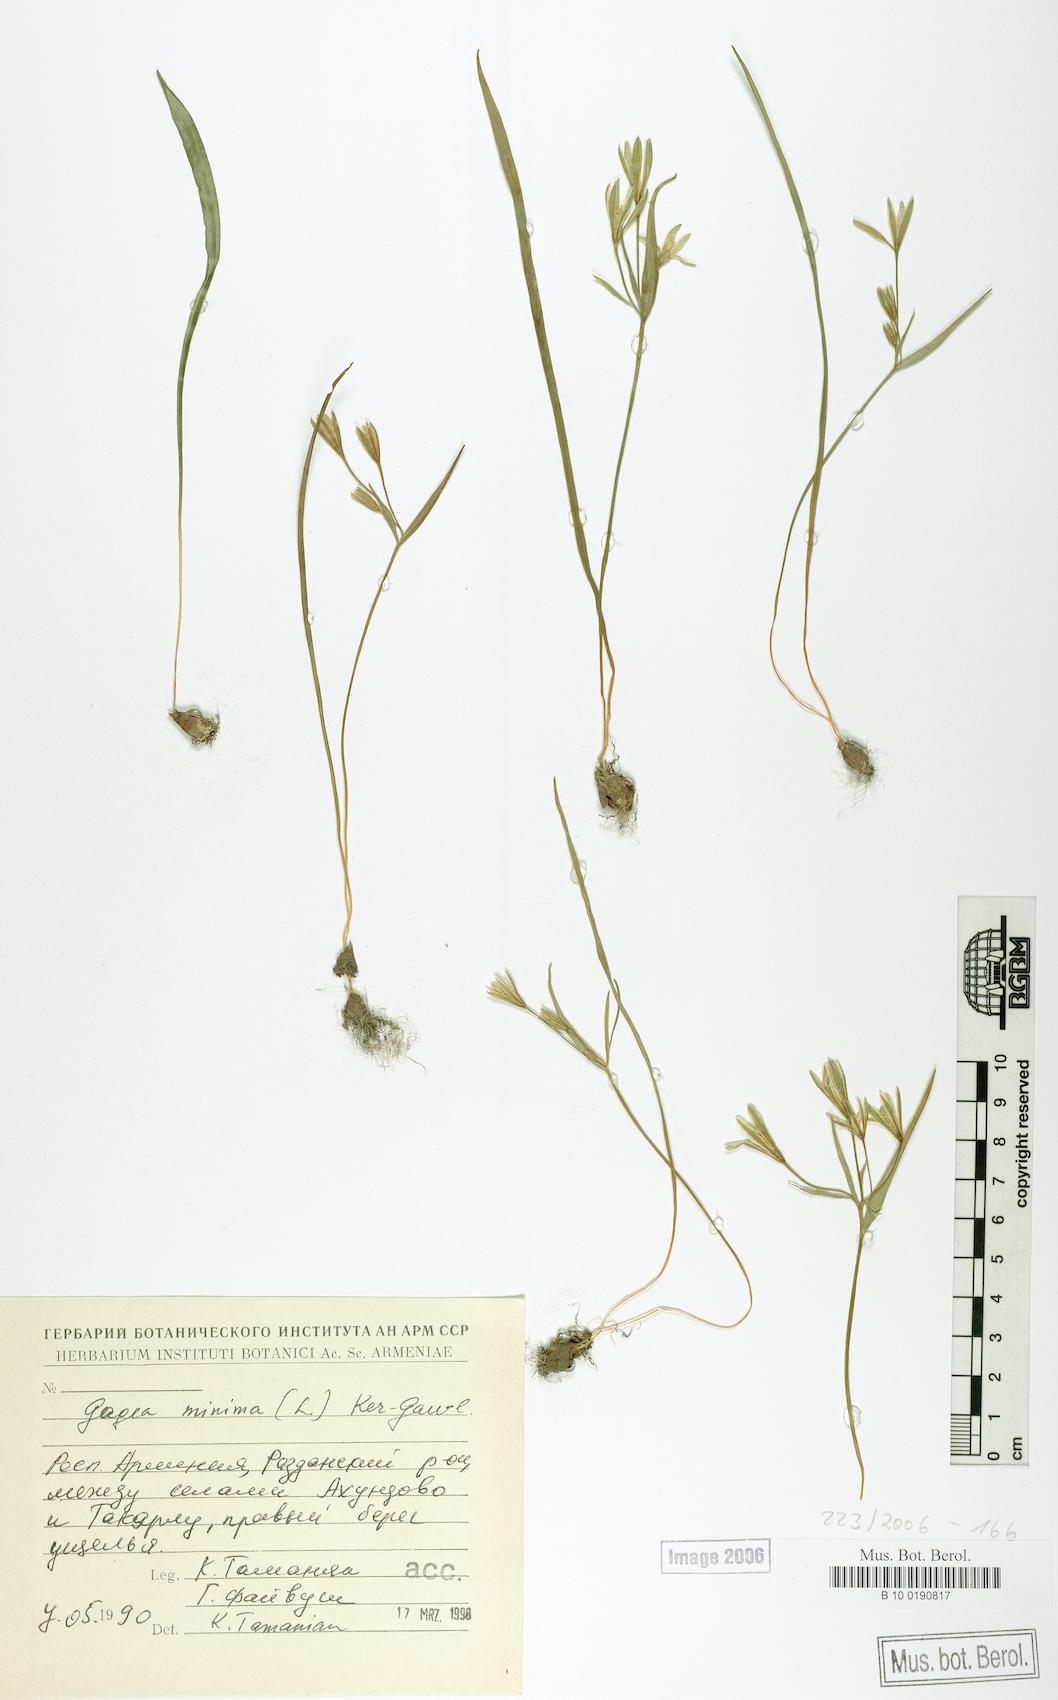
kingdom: Plantae
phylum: Tracheophyta
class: Liliopsida
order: Liliales
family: Liliaceae
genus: Gagea
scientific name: Gagea minima
